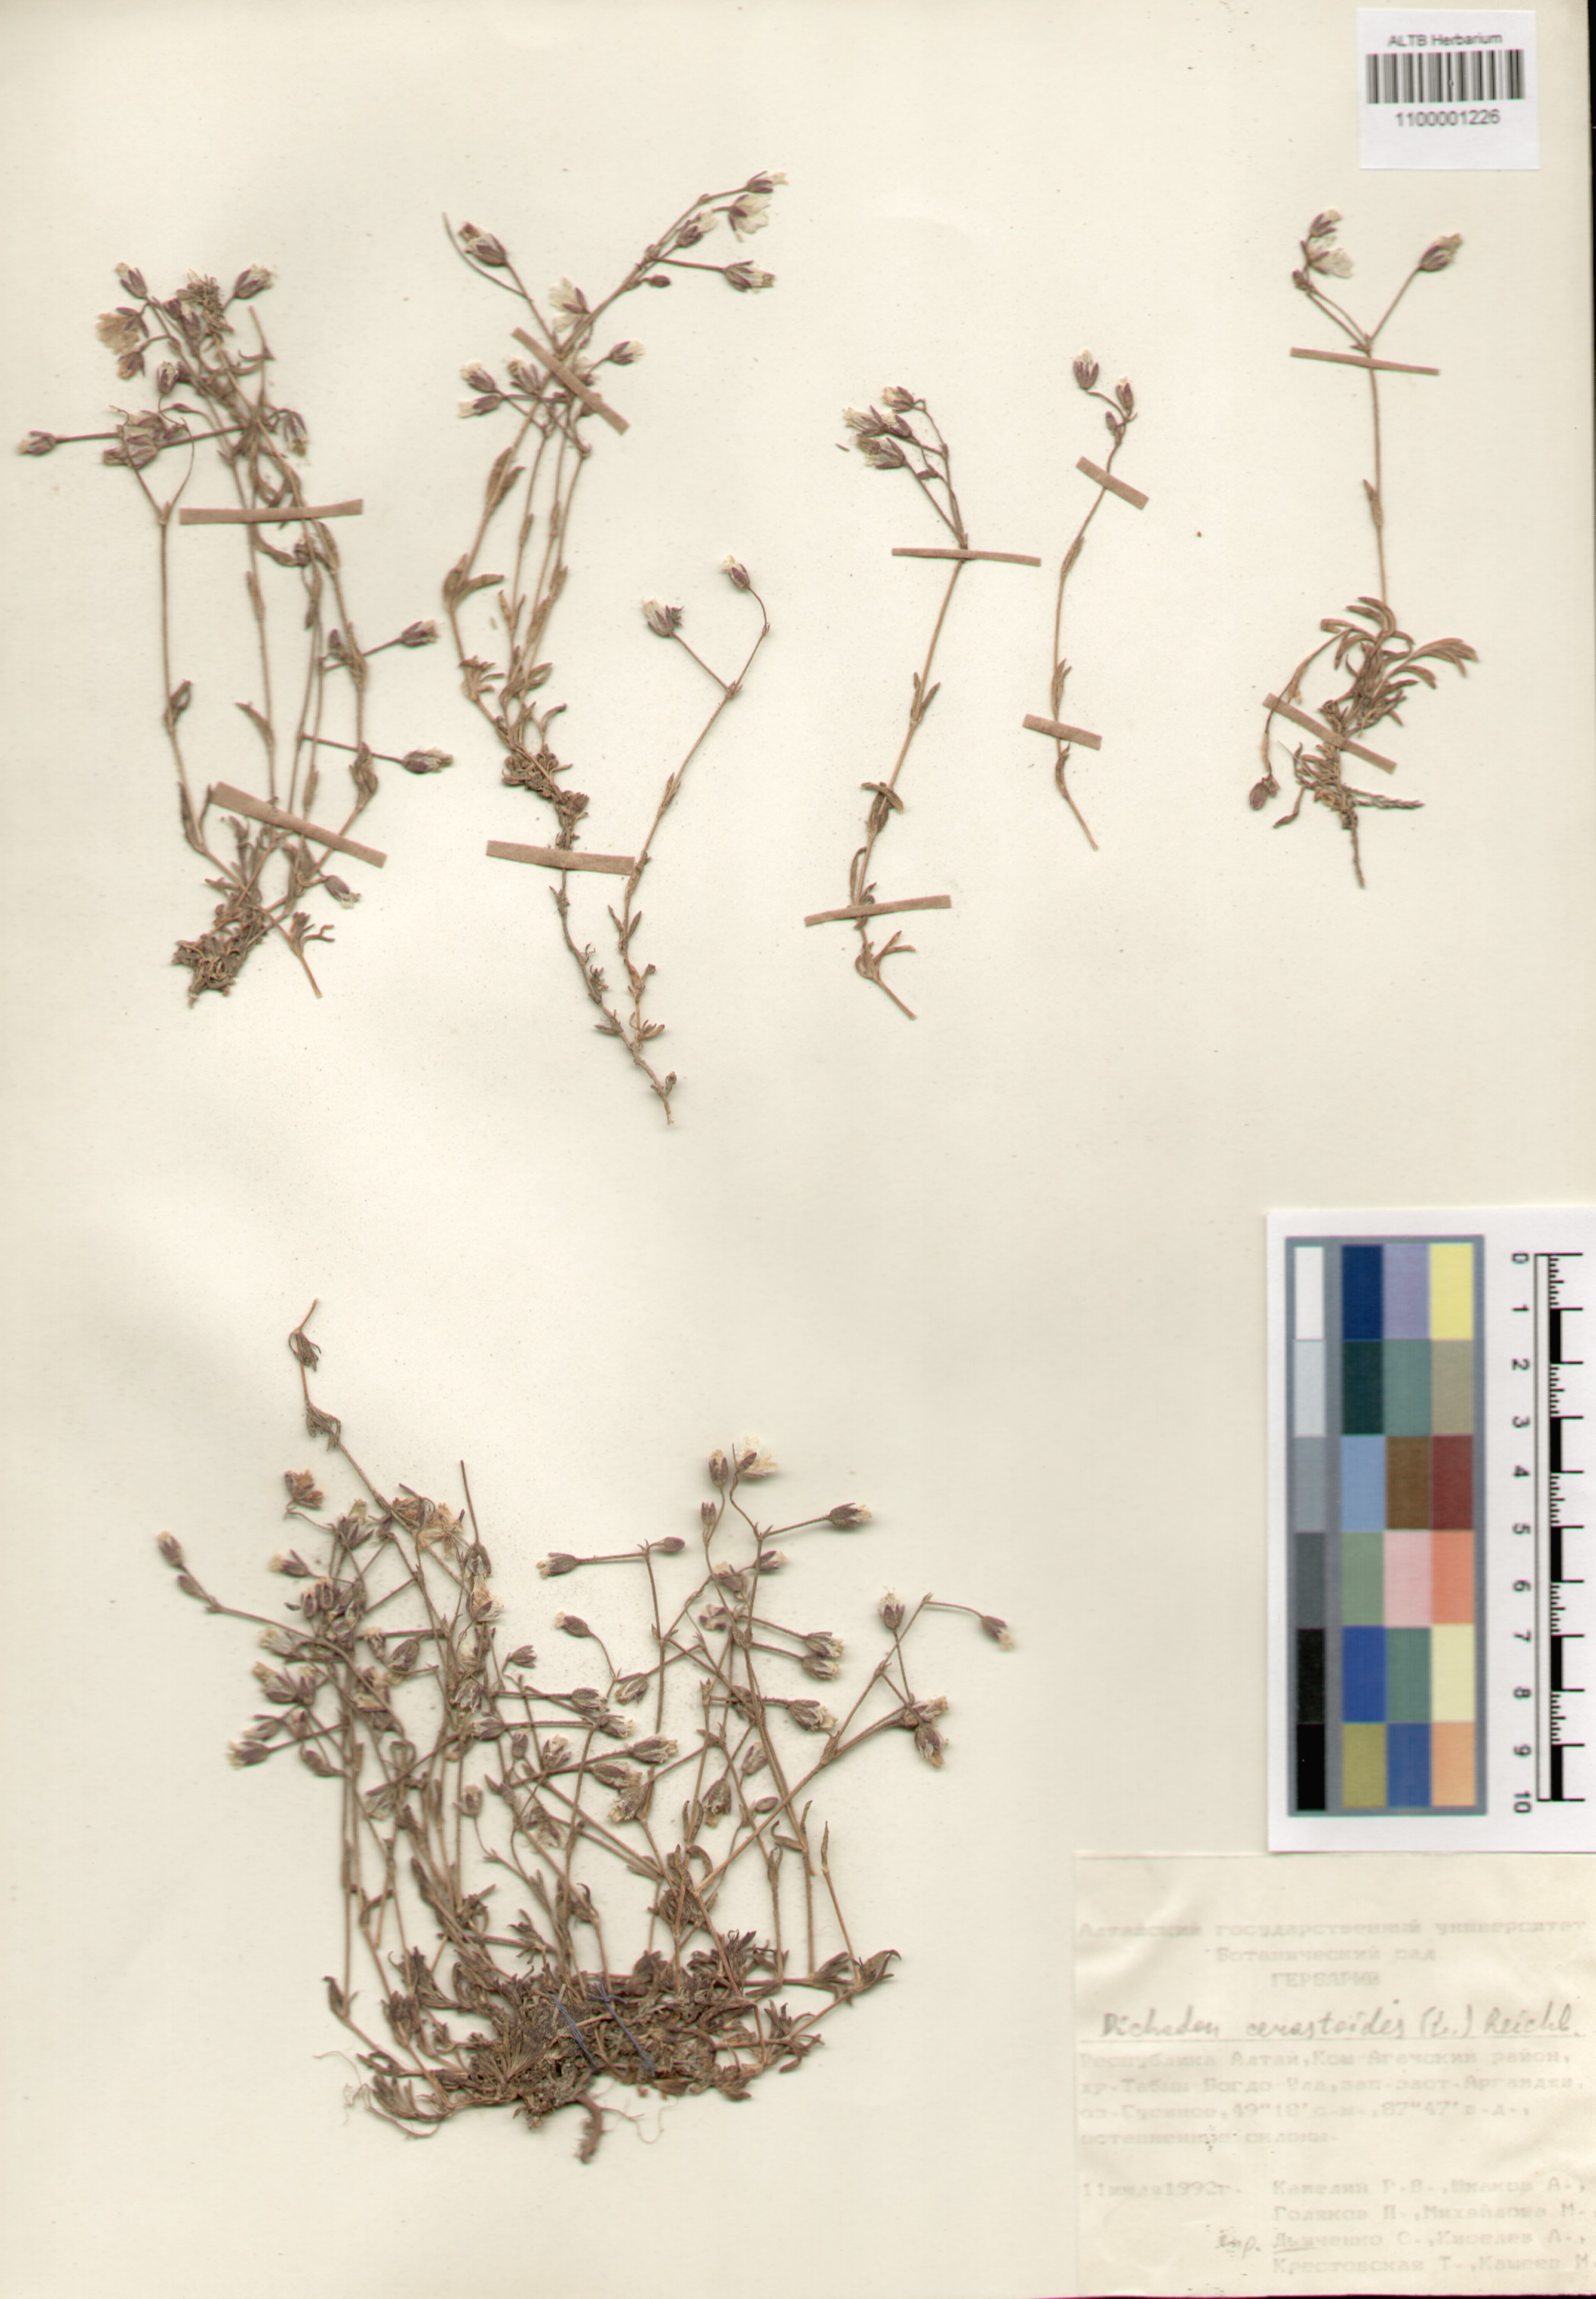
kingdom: Plantae
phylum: Tracheophyta
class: Magnoliopsida
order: Caryophyllales
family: Caryophyllaceae
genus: Dichodon
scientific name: Dichodon cerastoides
